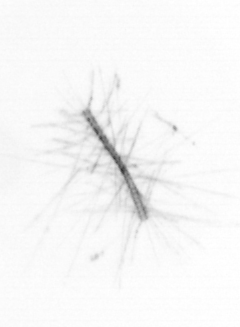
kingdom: Chromista
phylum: Ochrophyta
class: Bacillariophyceae
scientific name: Bacillariophyceae
